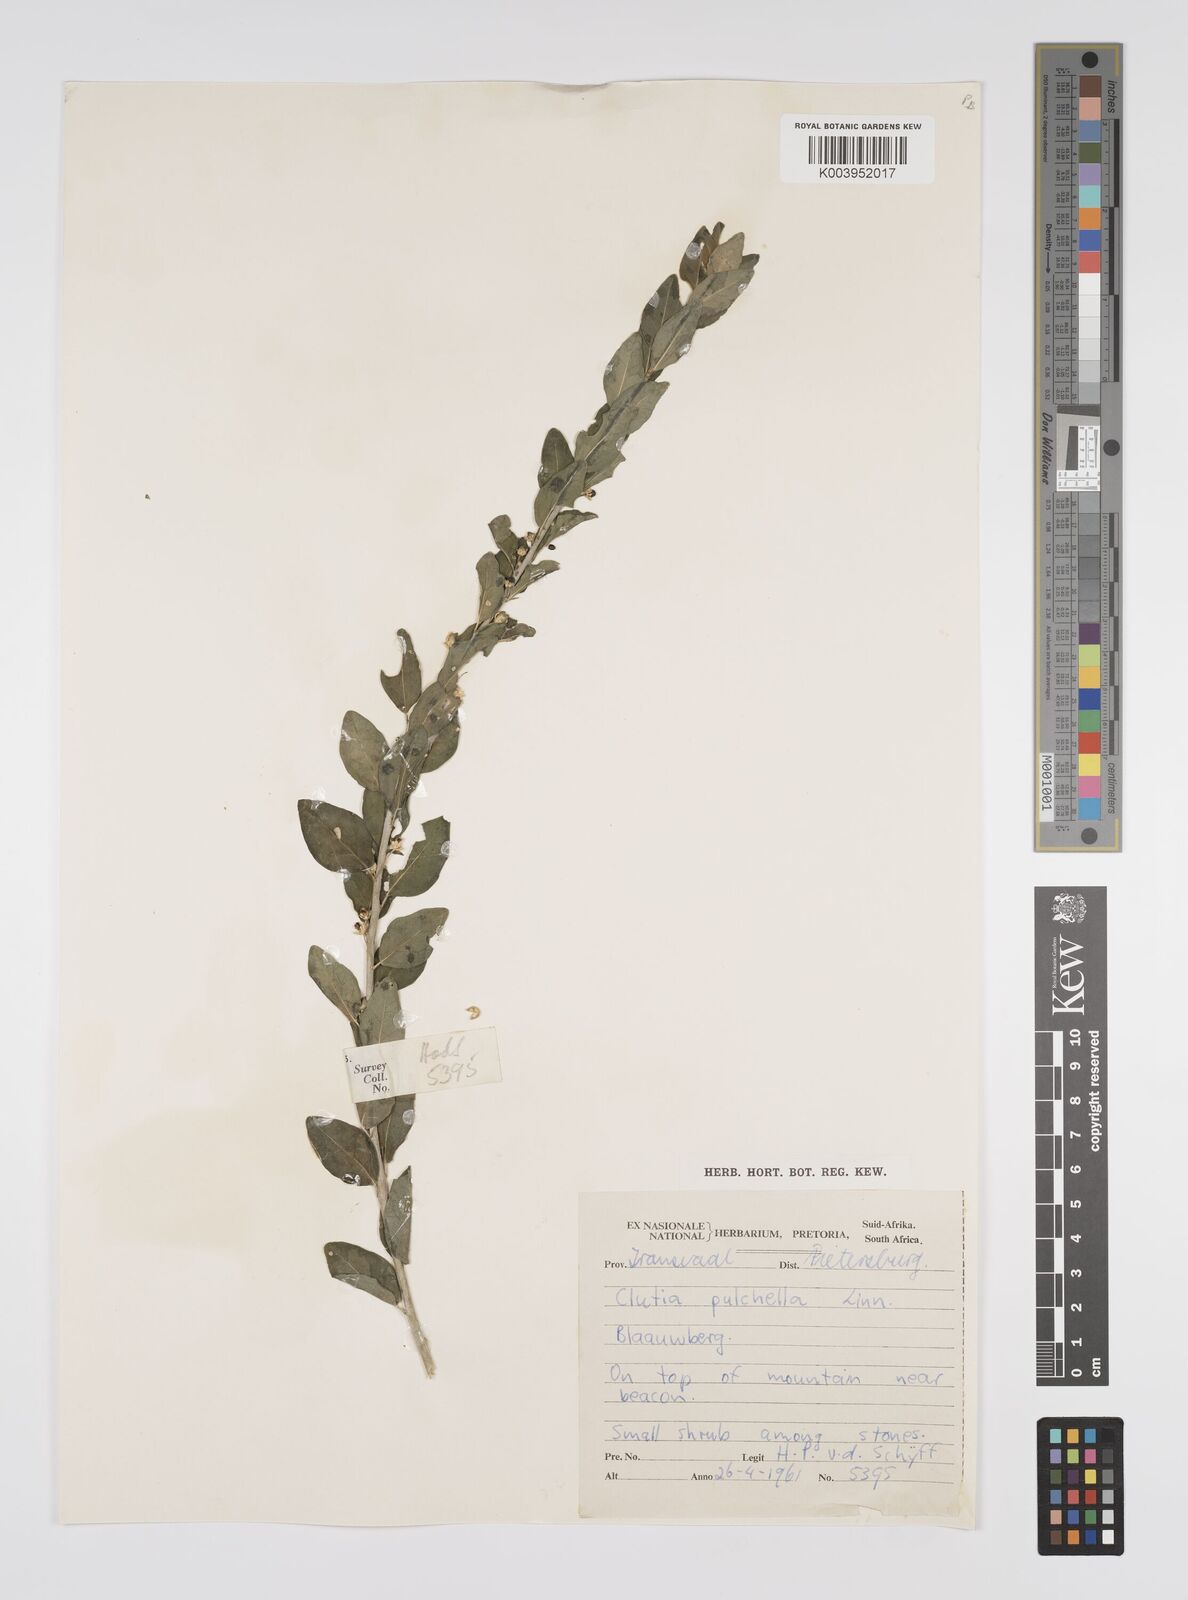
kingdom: Plantae
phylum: Tracheophyta
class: Magnoliopsida
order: Malpighiales
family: Peraceae
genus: Clutia
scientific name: Clutia pulchella
